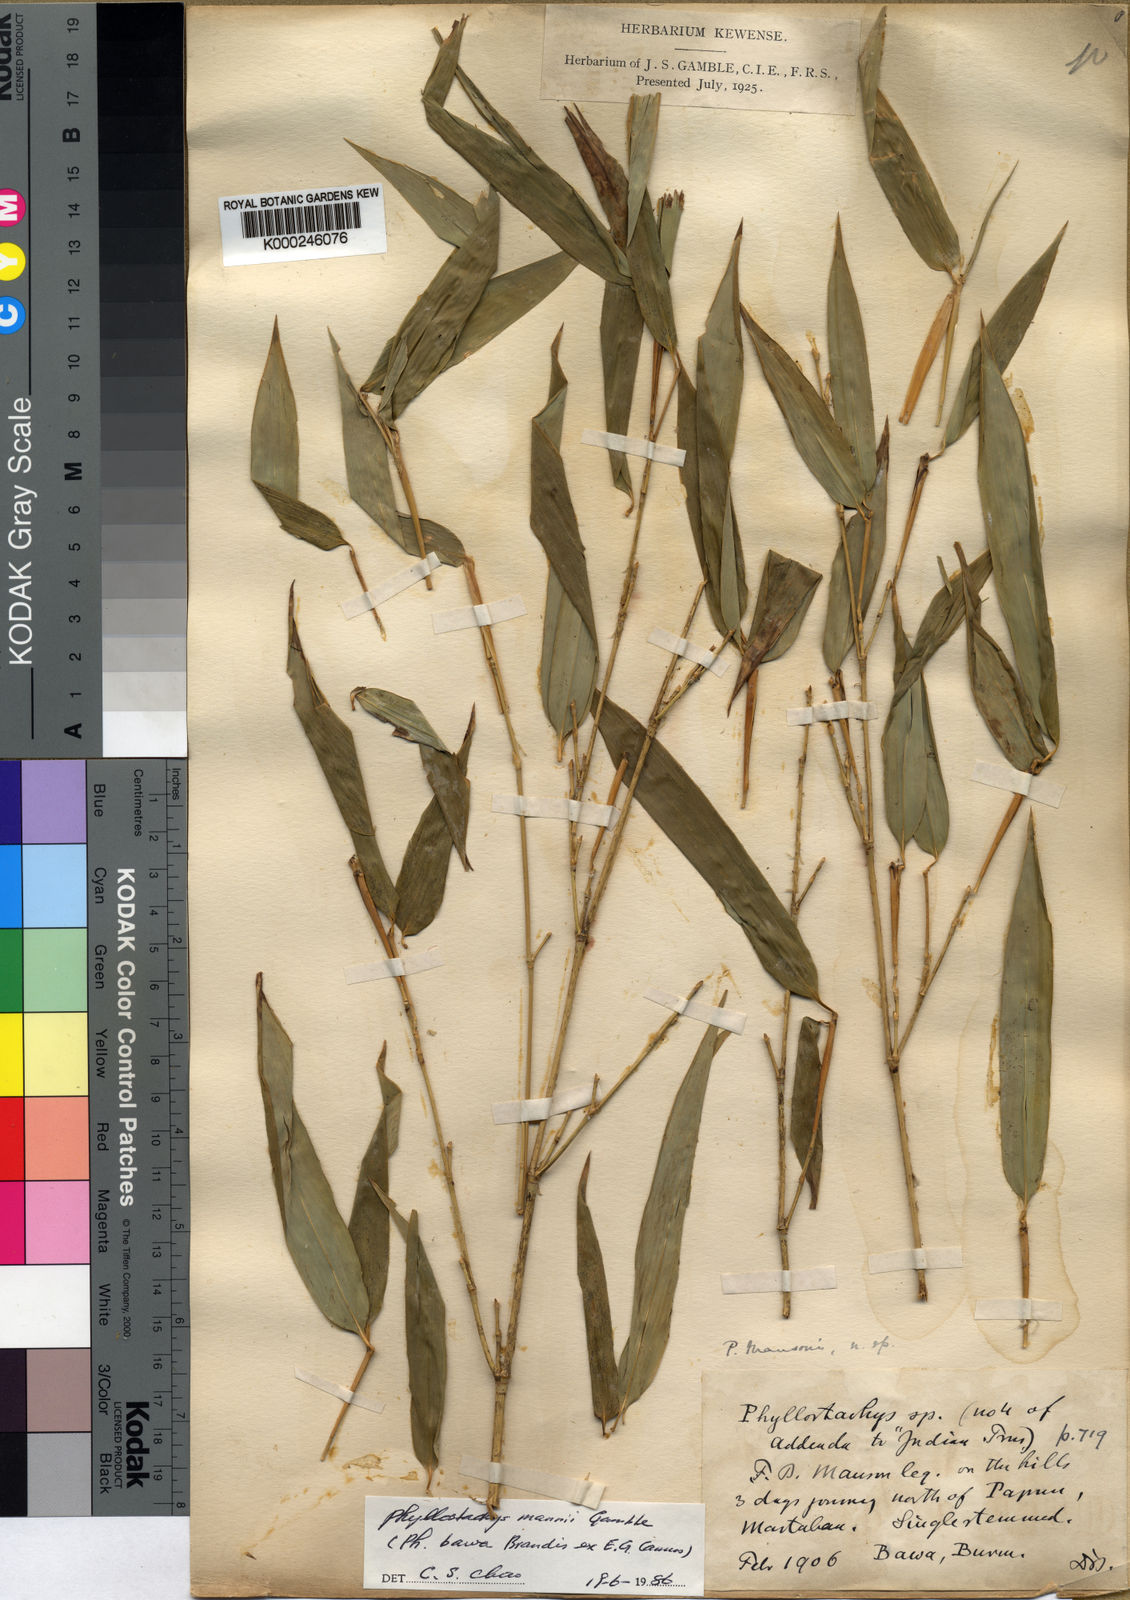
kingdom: Plantae
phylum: Tracheophyta
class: Liliopsida
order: Poales
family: Poaceae
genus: Phyllostachys
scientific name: Phyllostachys mannii
